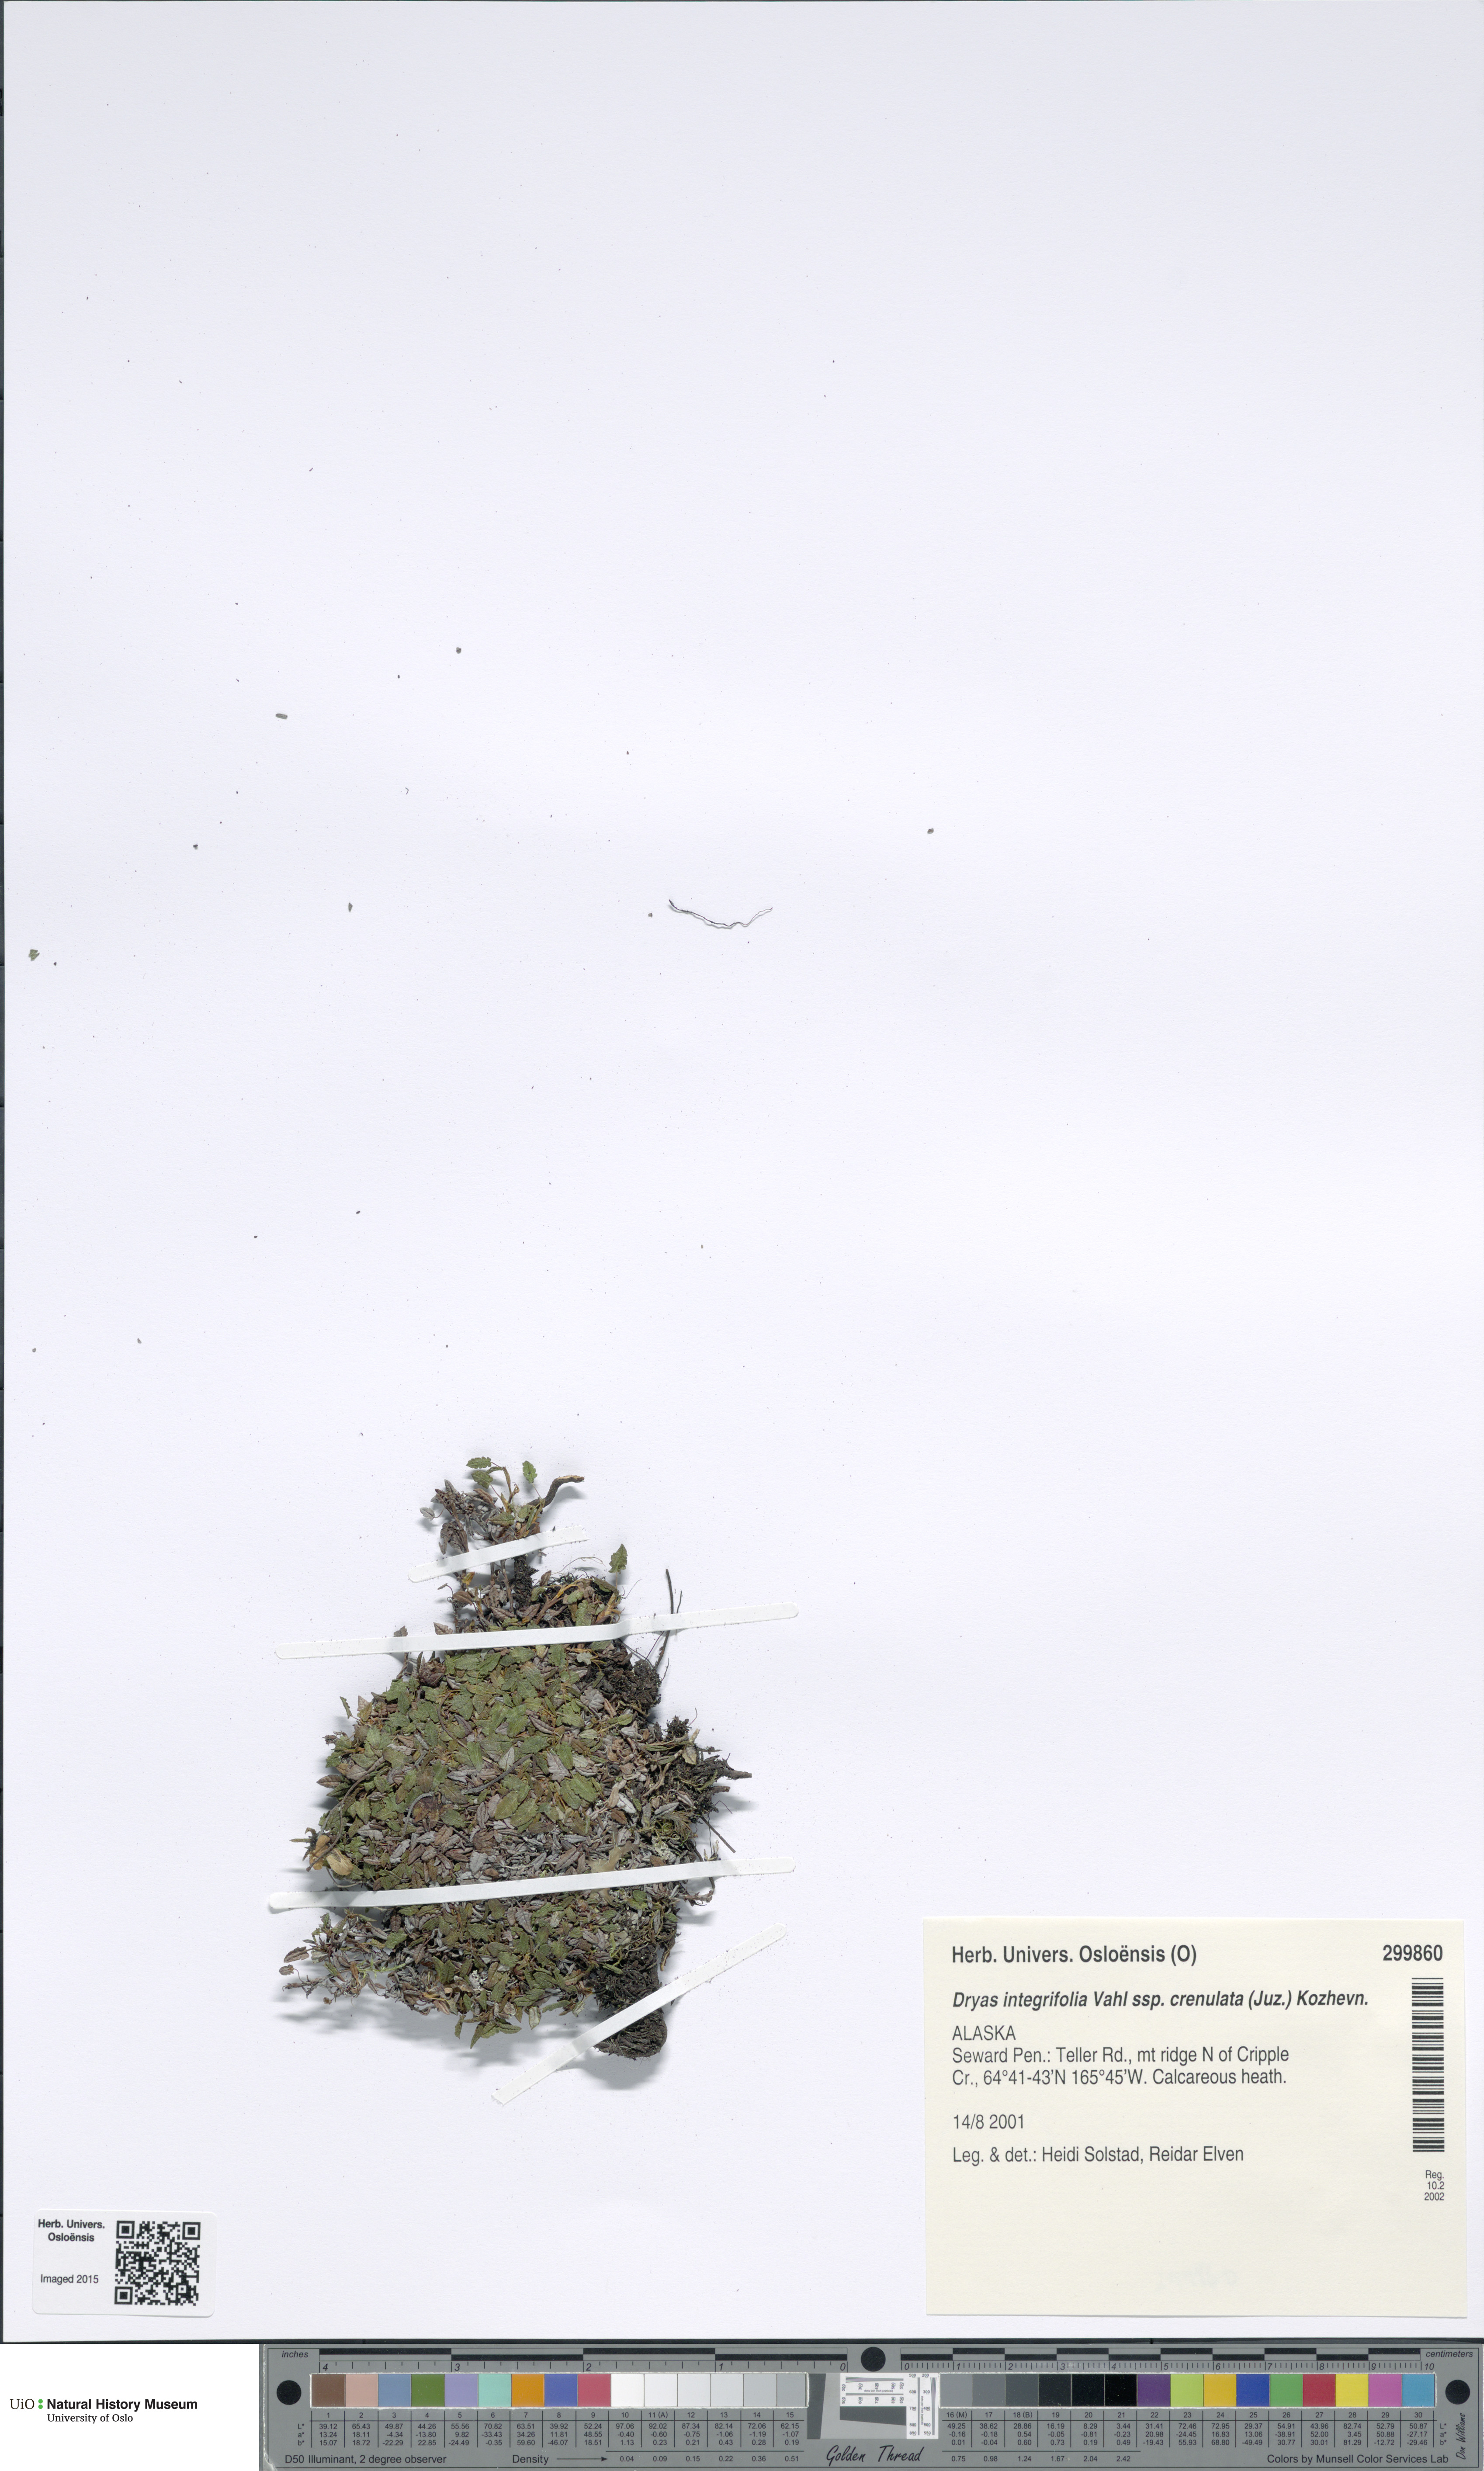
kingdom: Plantae
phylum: Tracheophyta
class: Magnoliopsida
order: Rosales
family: Rosaceae
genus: Dryas
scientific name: Dryas integrifolia
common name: Entire-leaved mountain avens
